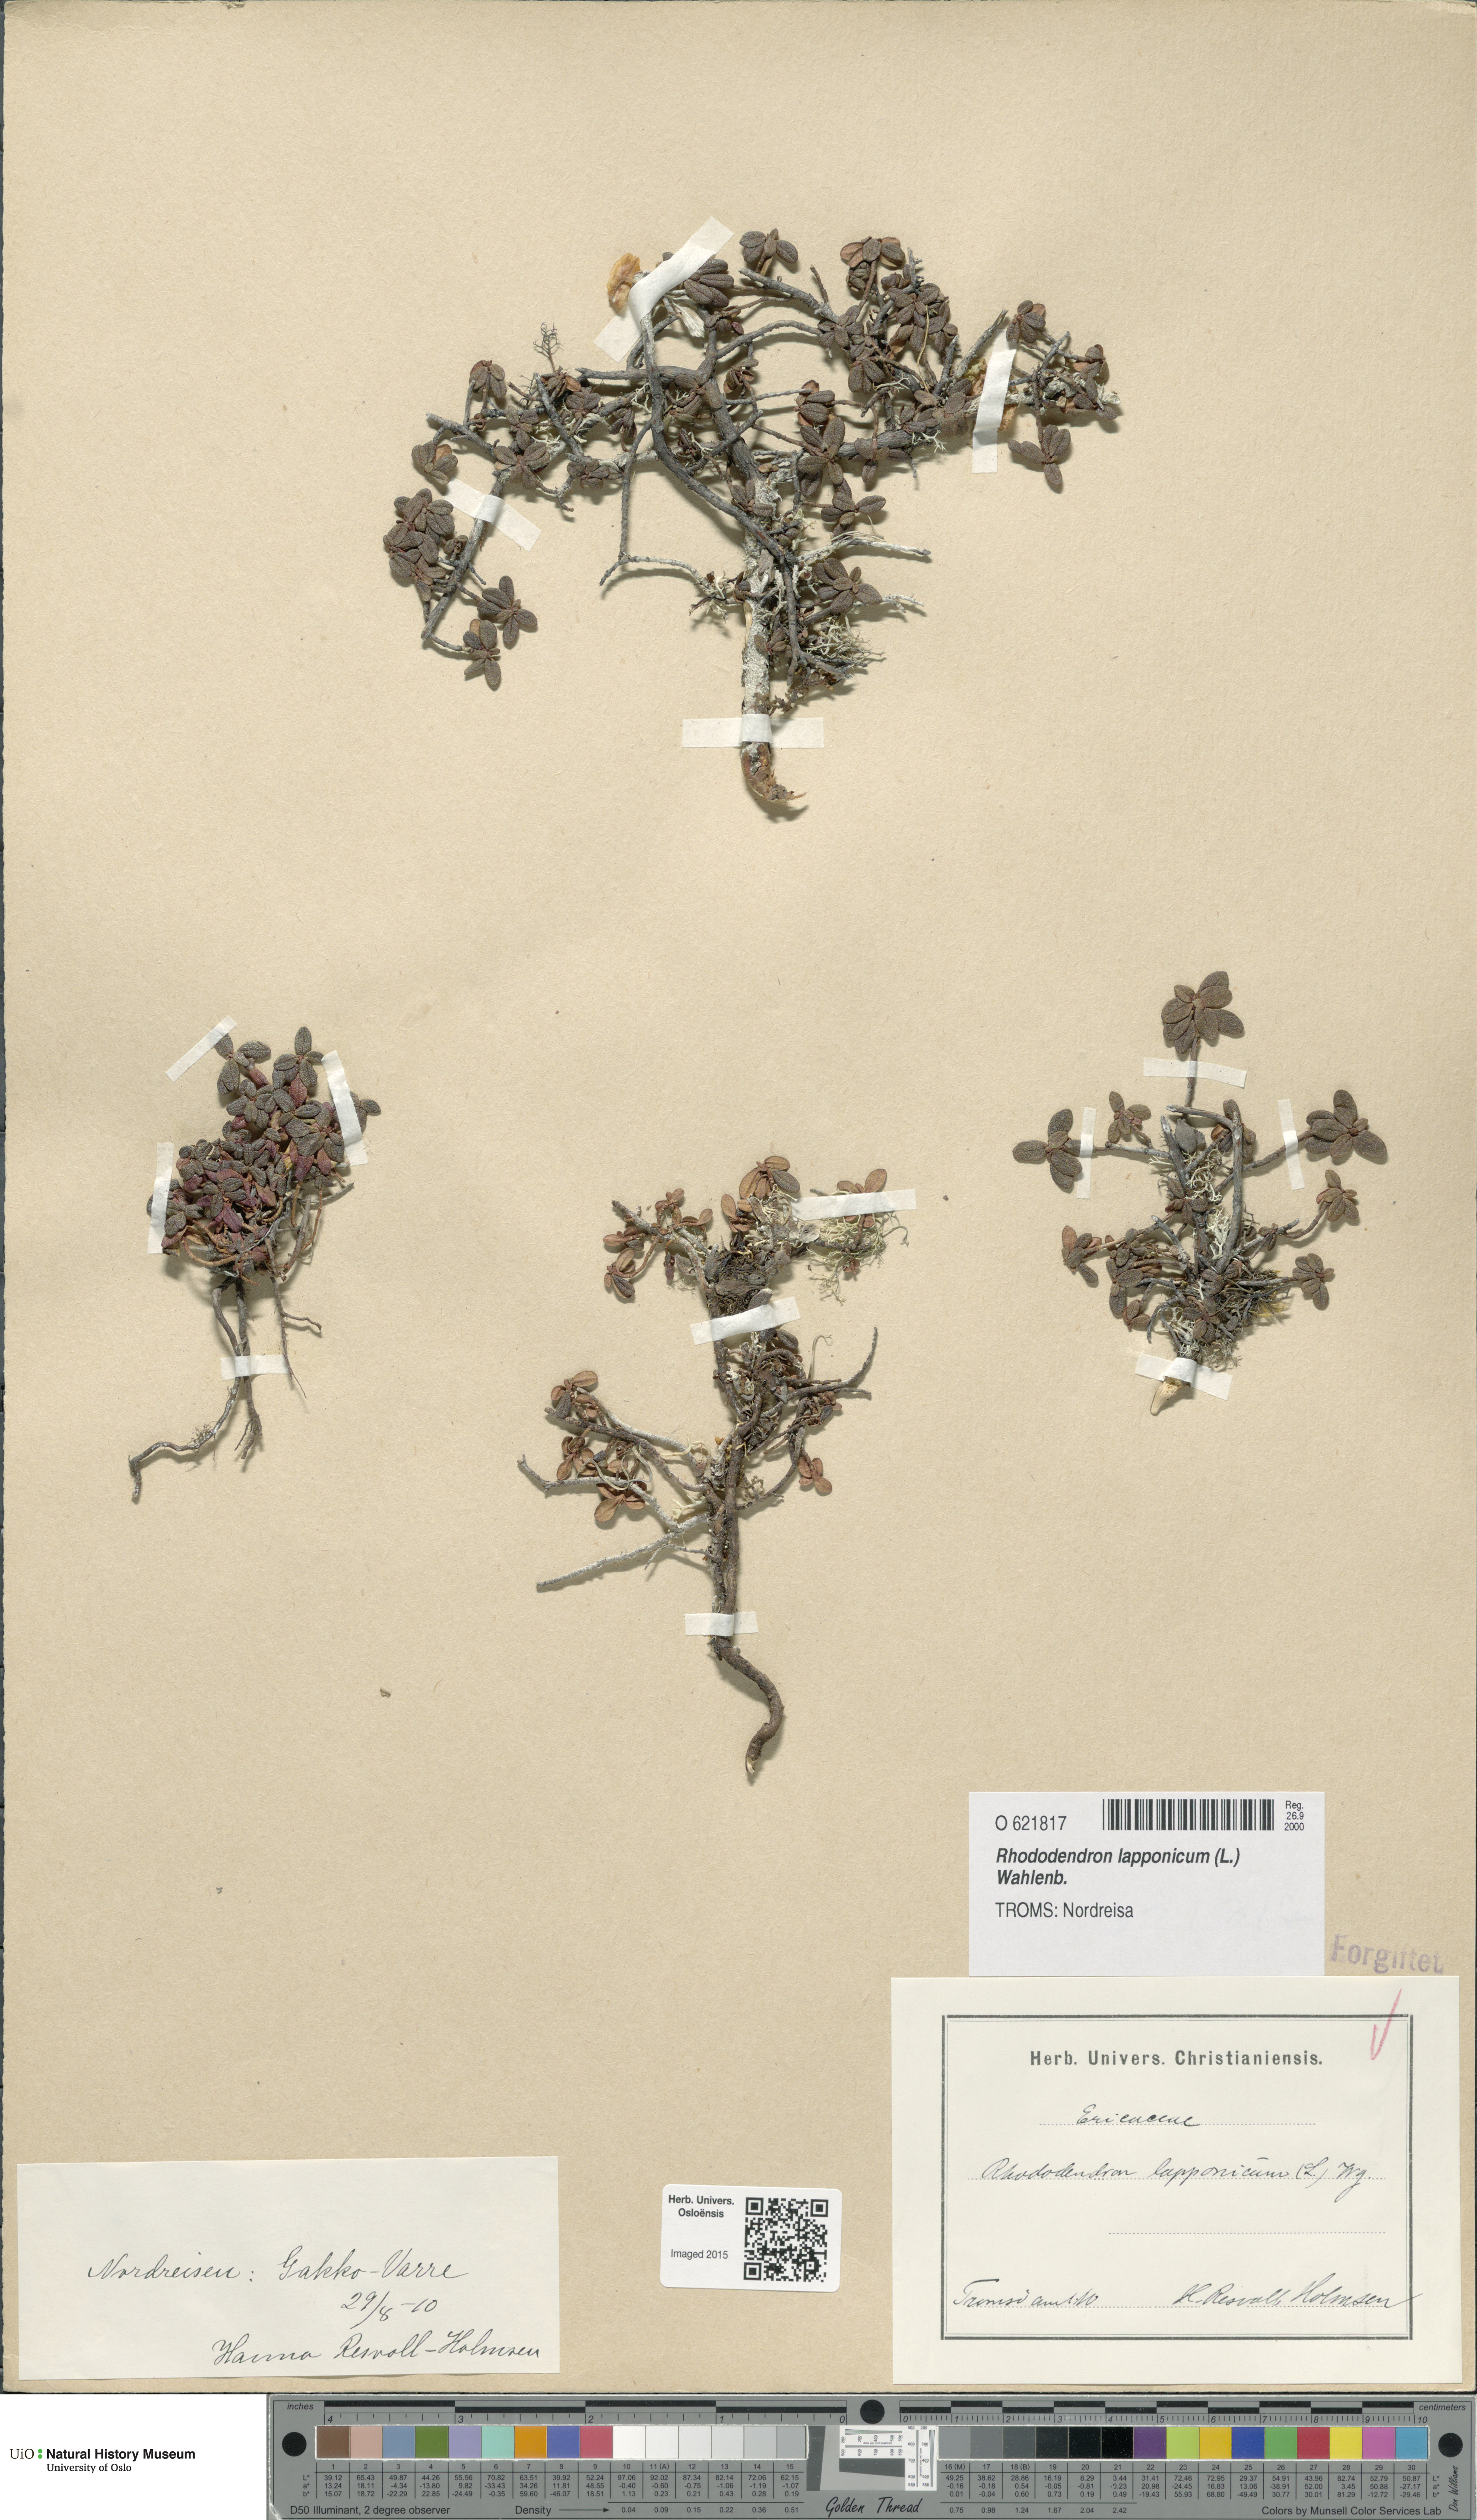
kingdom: Plantae
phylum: Tracheophyta
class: Magnoliopsida
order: Ericales
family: Ericaceae
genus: Rhododendron
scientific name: Rhododendron lapponicum
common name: Lapland rhododendron
